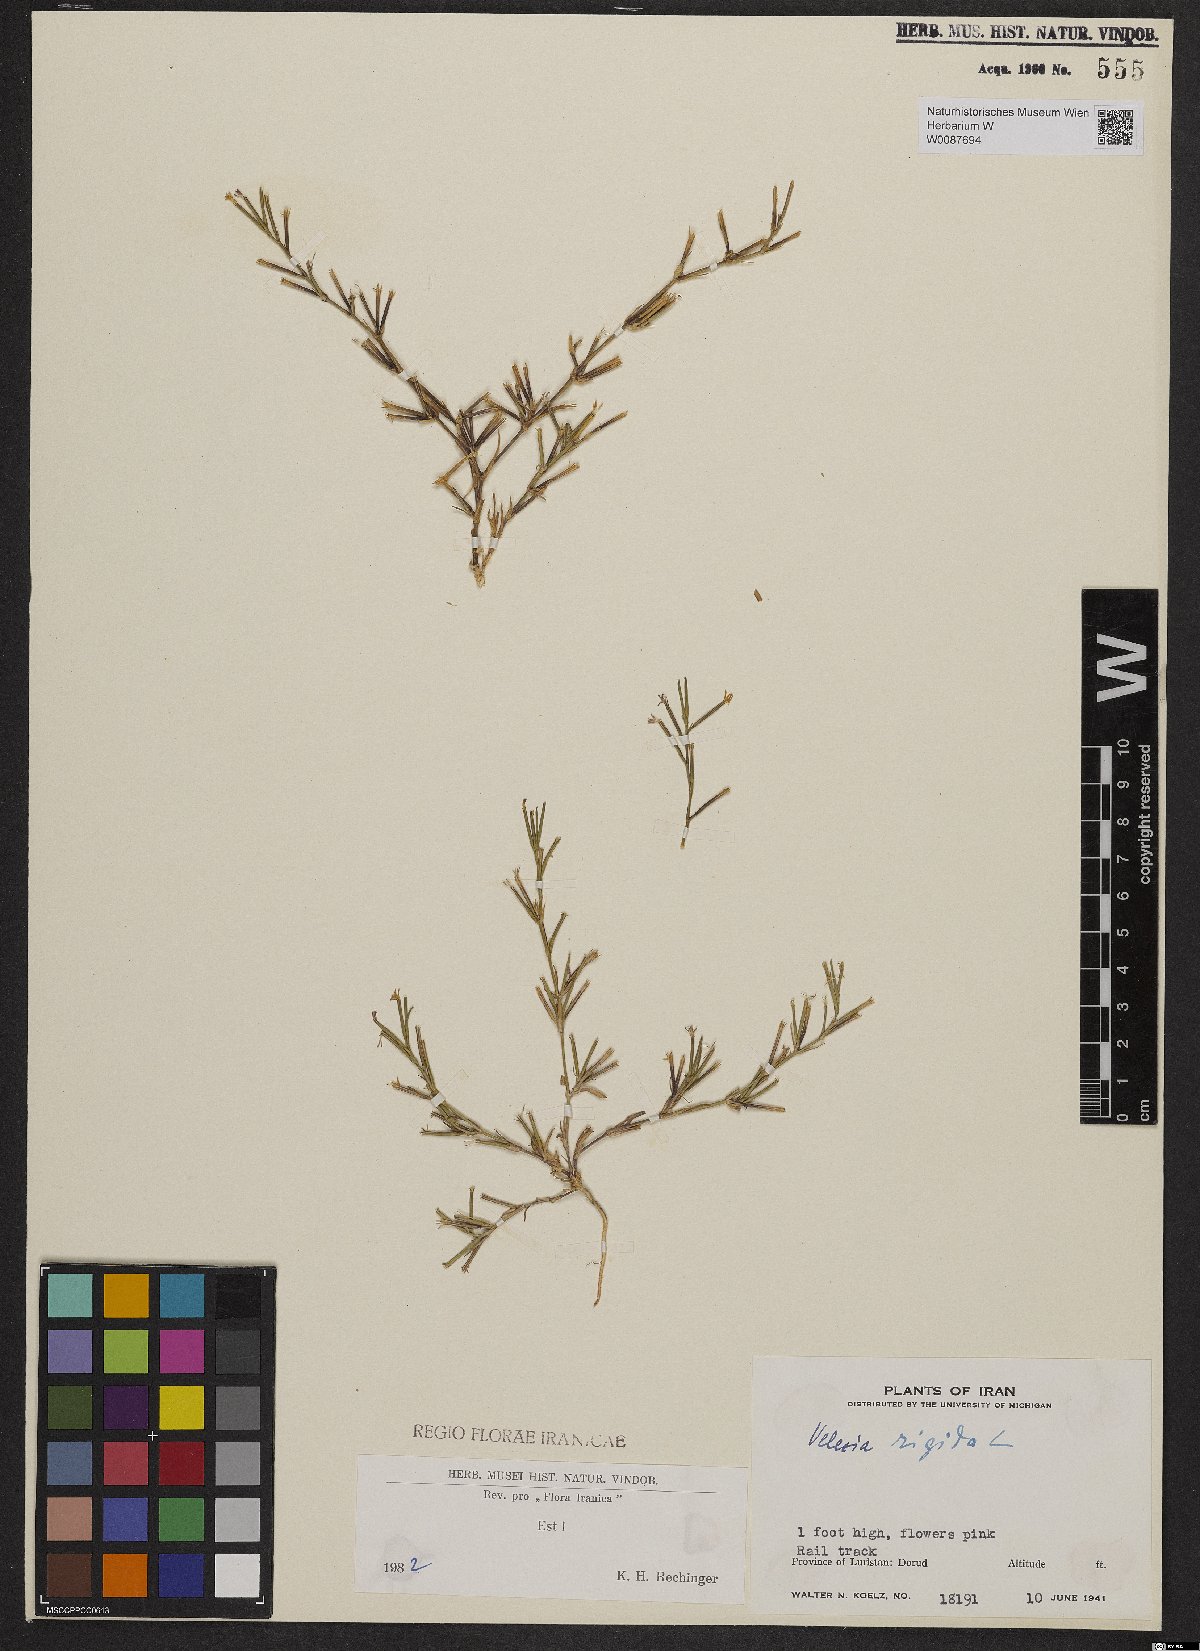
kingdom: Plantae
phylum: Tracheophyta
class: Magnoliopsida
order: Caryophyllales
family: Caryophyllaceae
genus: Dianthus
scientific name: Dianthus nudiflorus
